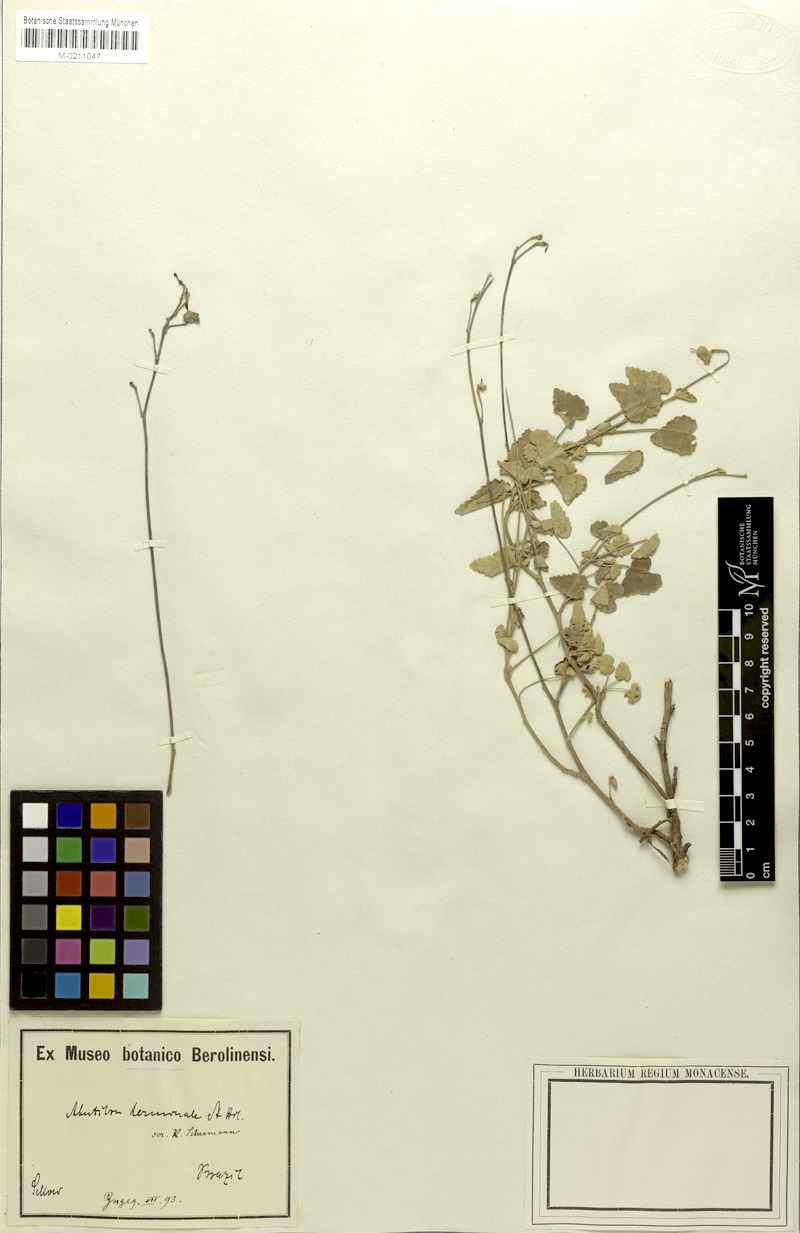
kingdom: Plantae
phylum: Tracheophyta
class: Magnoliopsida
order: Malvales
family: Malvaceae
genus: Abutilon
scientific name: Abutilon terminale
